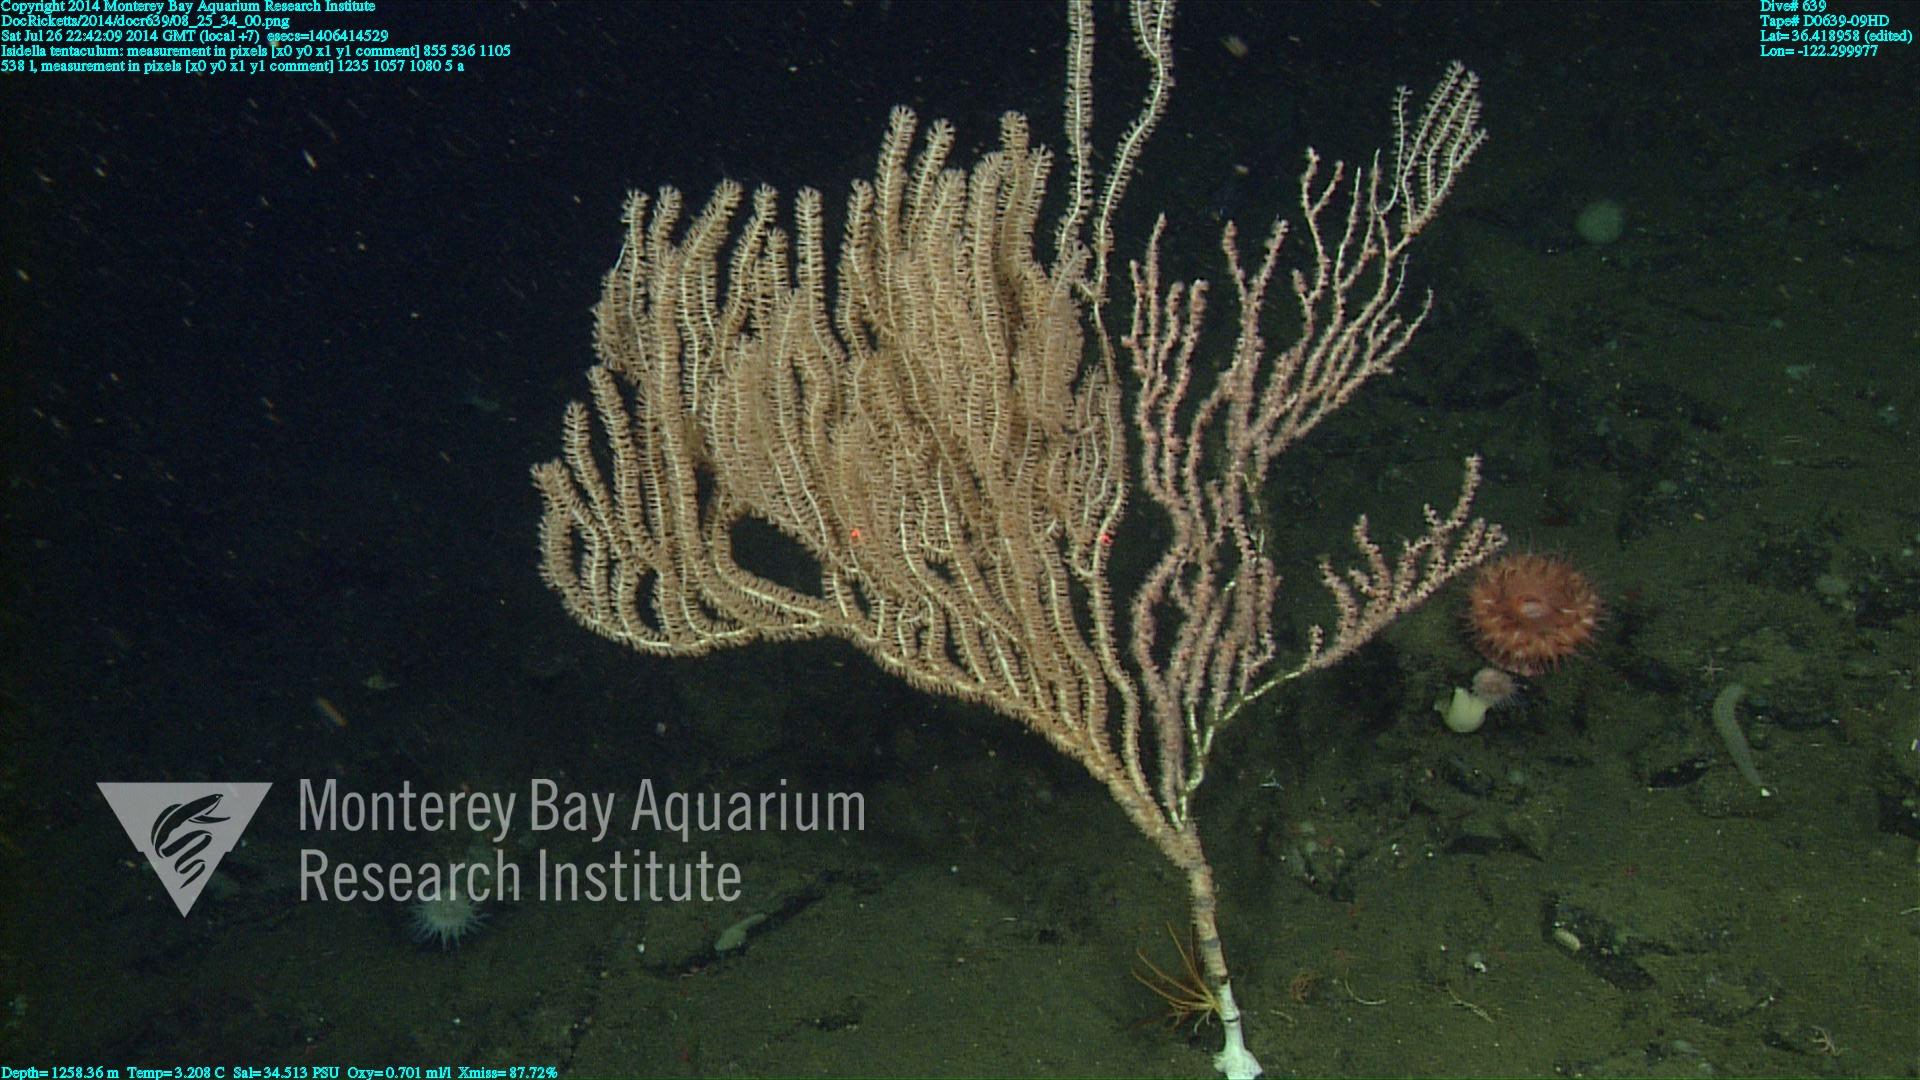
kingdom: Animalia
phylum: Cnidaria
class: Anthozoa
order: Scleralcyonacea
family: Keratoisididae
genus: Isidella
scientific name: Isidella tentaculum
